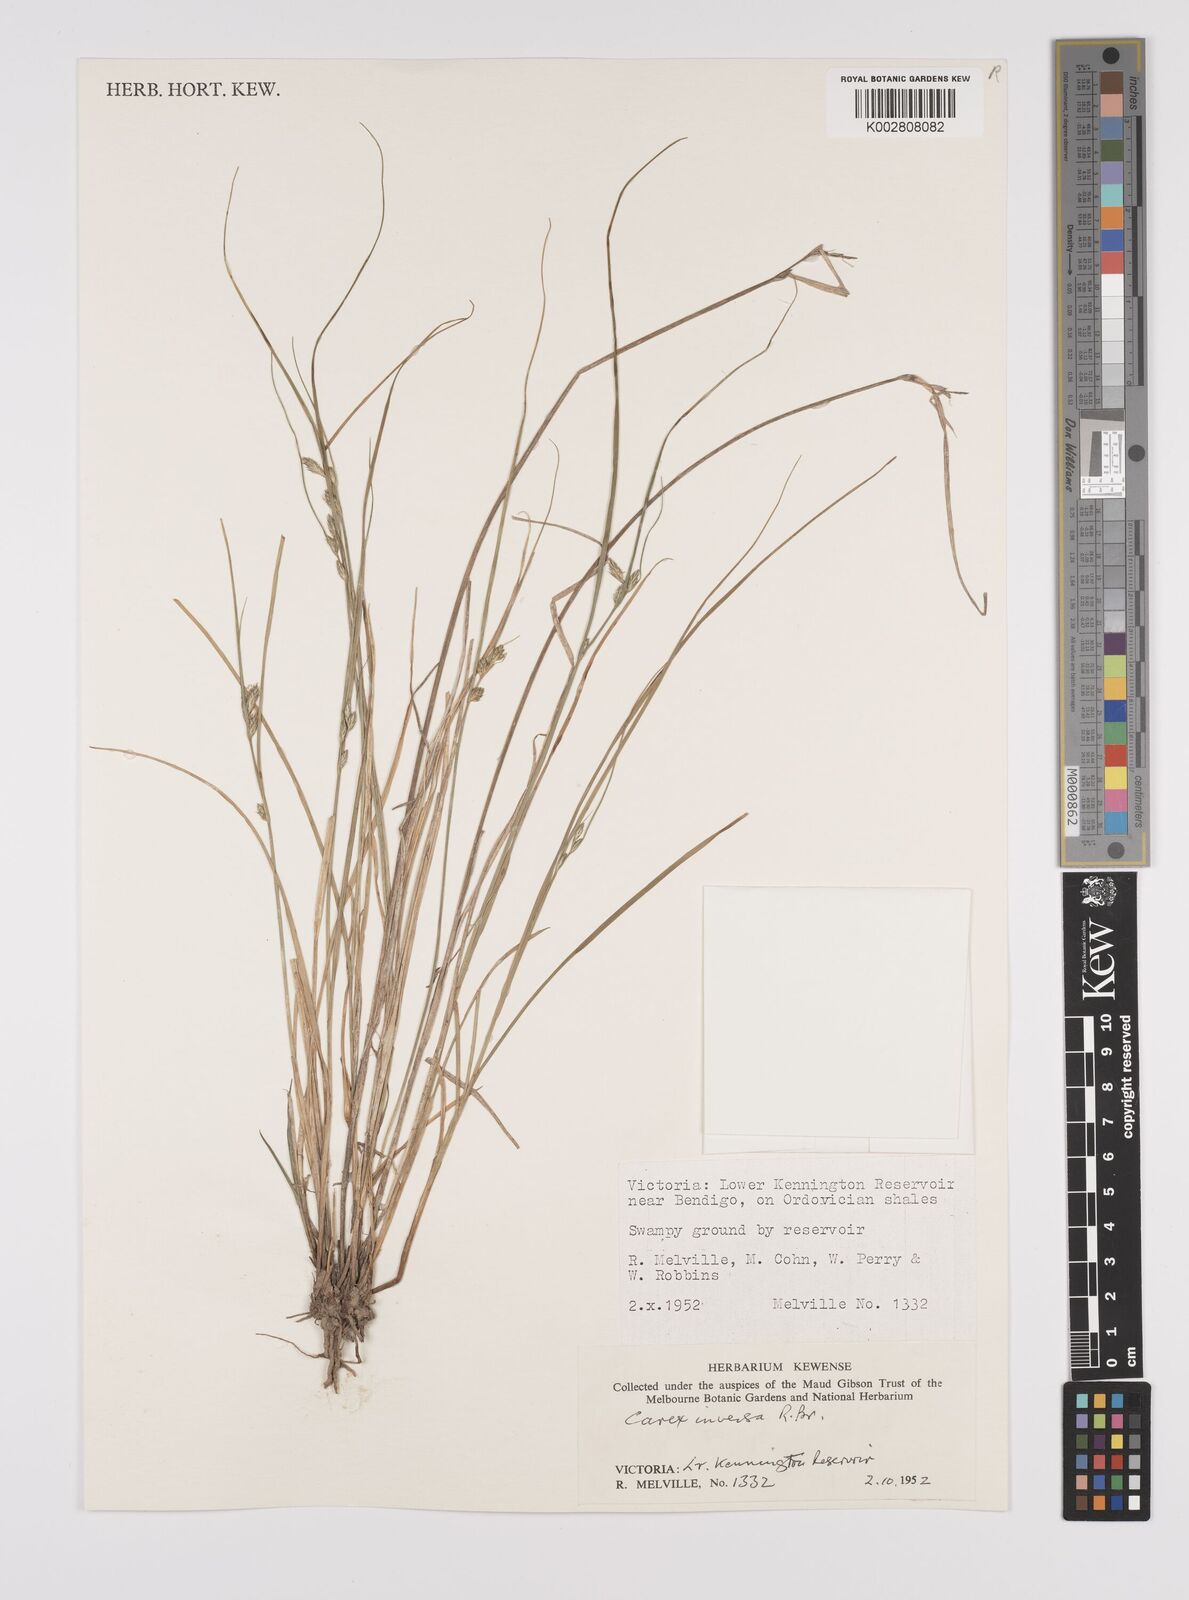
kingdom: Plantae
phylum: Tracheophyta
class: Liliopsida
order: Poales
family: Cyperaceae
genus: Carex
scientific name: Carex inversa
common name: Knob sedge
